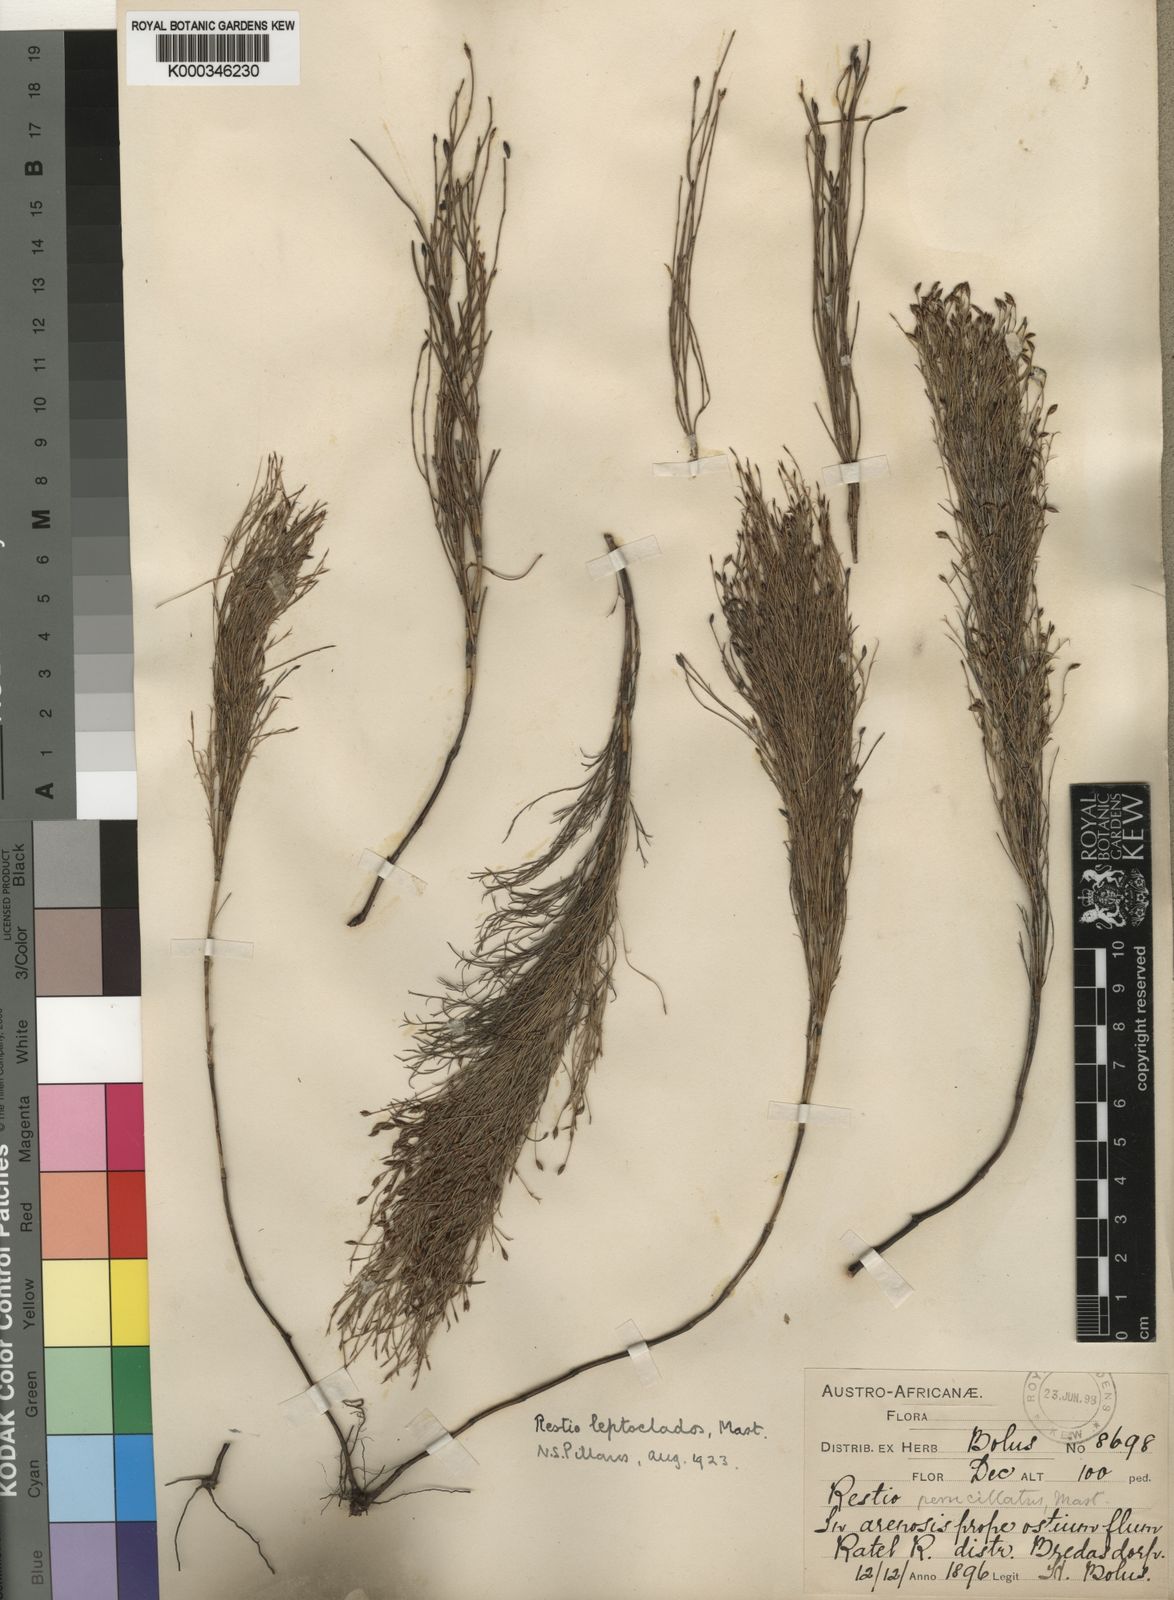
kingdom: Plantae
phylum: Tracheophyta
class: Liliopsida
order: Poales
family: Restionaceae
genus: Restio
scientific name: Restio leptoclados
